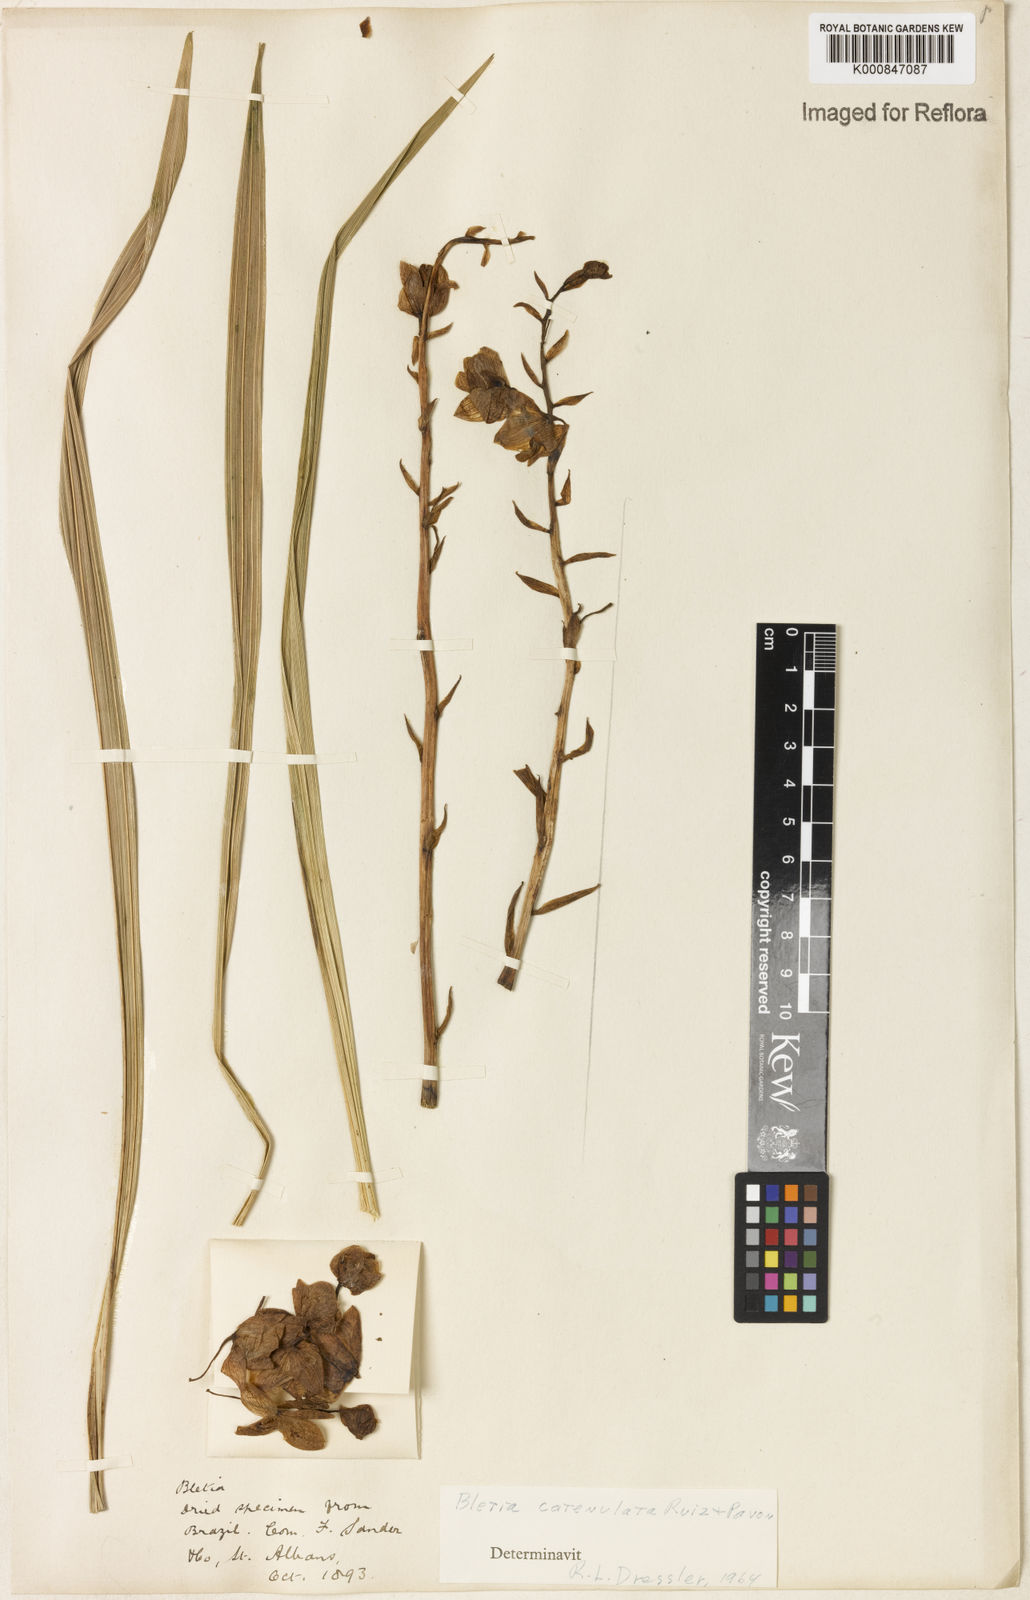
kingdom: Plantae
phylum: Tracheophyta
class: Liliopsida
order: Asparagales
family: Orchidaceae
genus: Bletia
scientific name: Bletia
